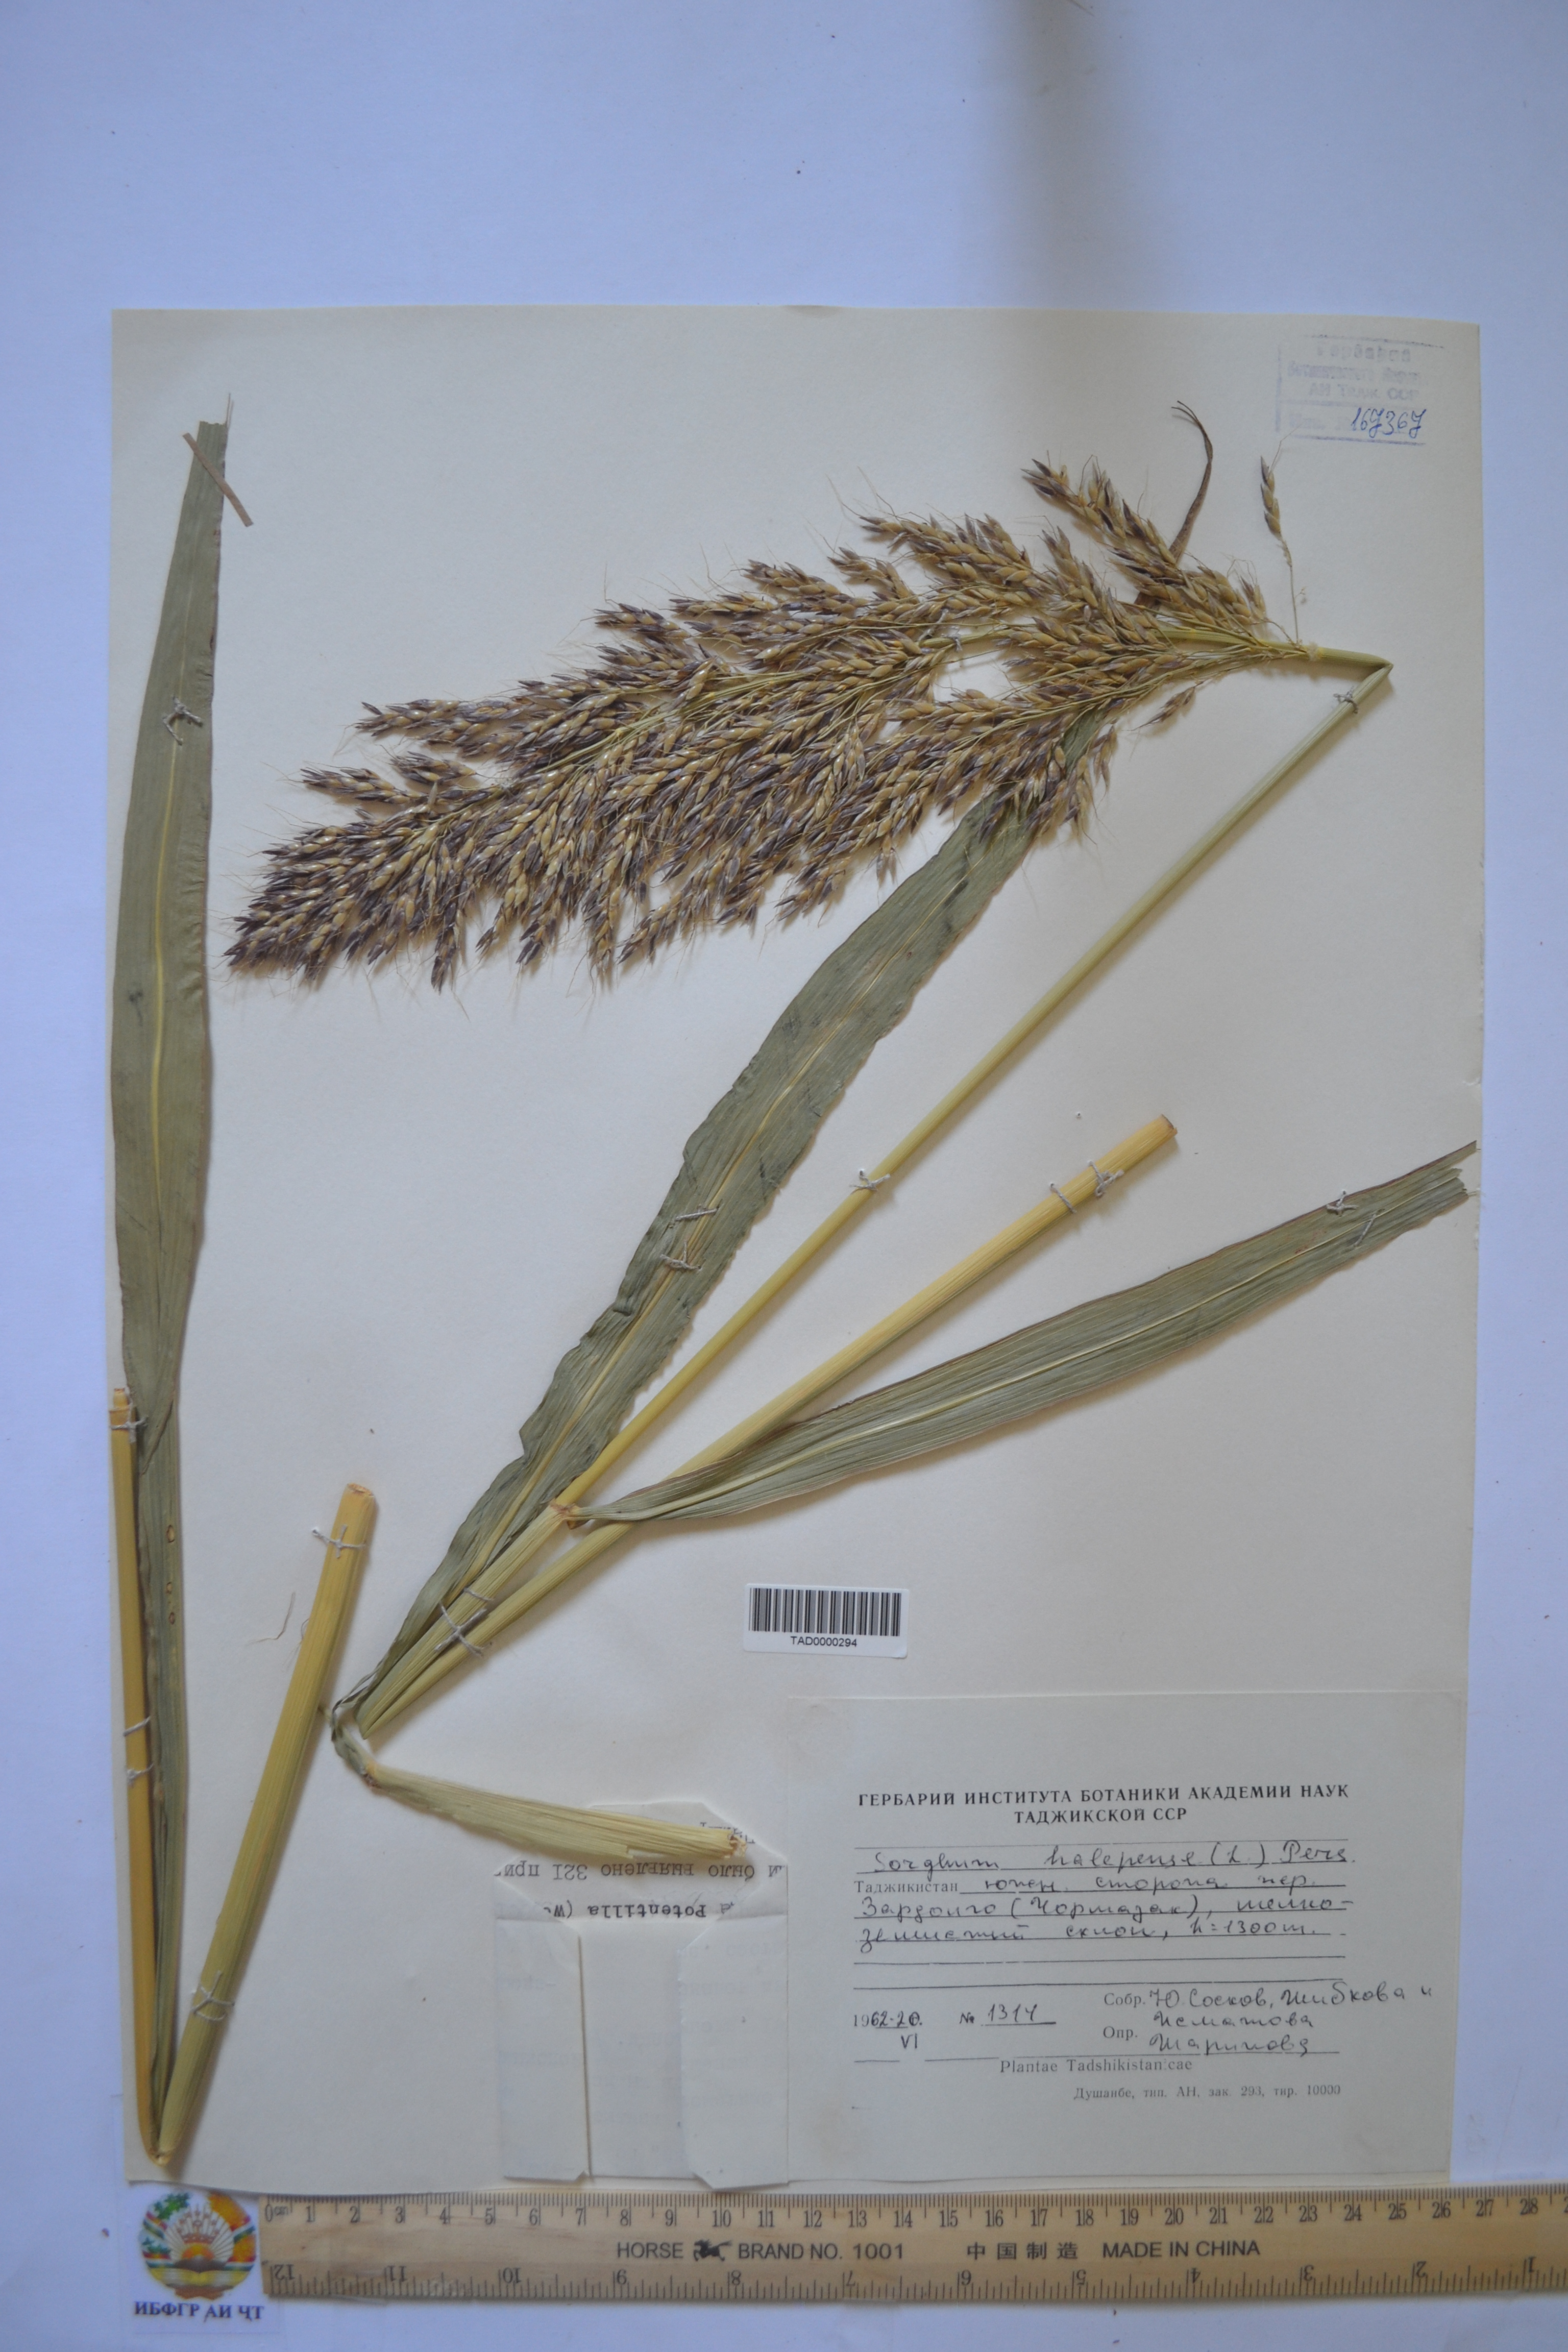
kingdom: Plantae
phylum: Tracheophyta
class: Liliopsida
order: Poales
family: Poaceae
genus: Sorghum
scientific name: Sorghum halepense
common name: Johnson-grass
